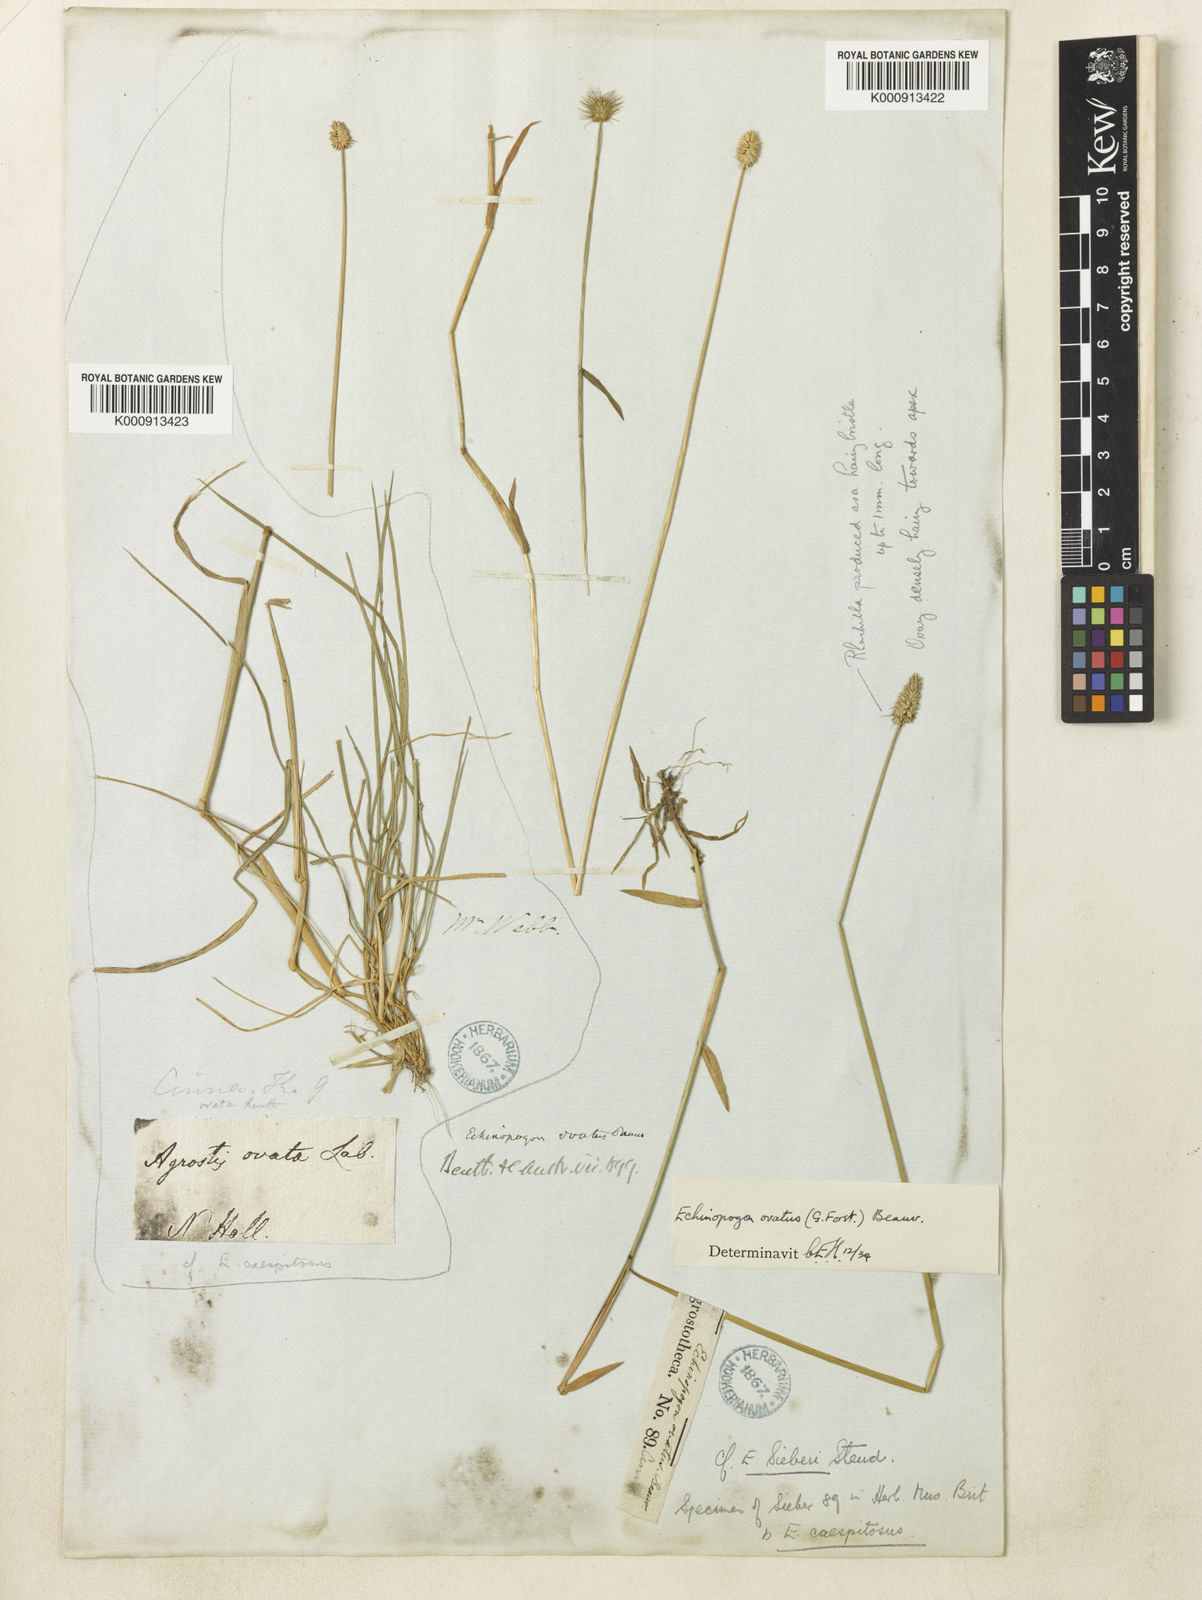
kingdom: Plantae
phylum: Tracheophyta
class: Liliopsida
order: Poales
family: Poaceae
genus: Echinopogon
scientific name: Echinopogon ovatus
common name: Hedgehog-grass
